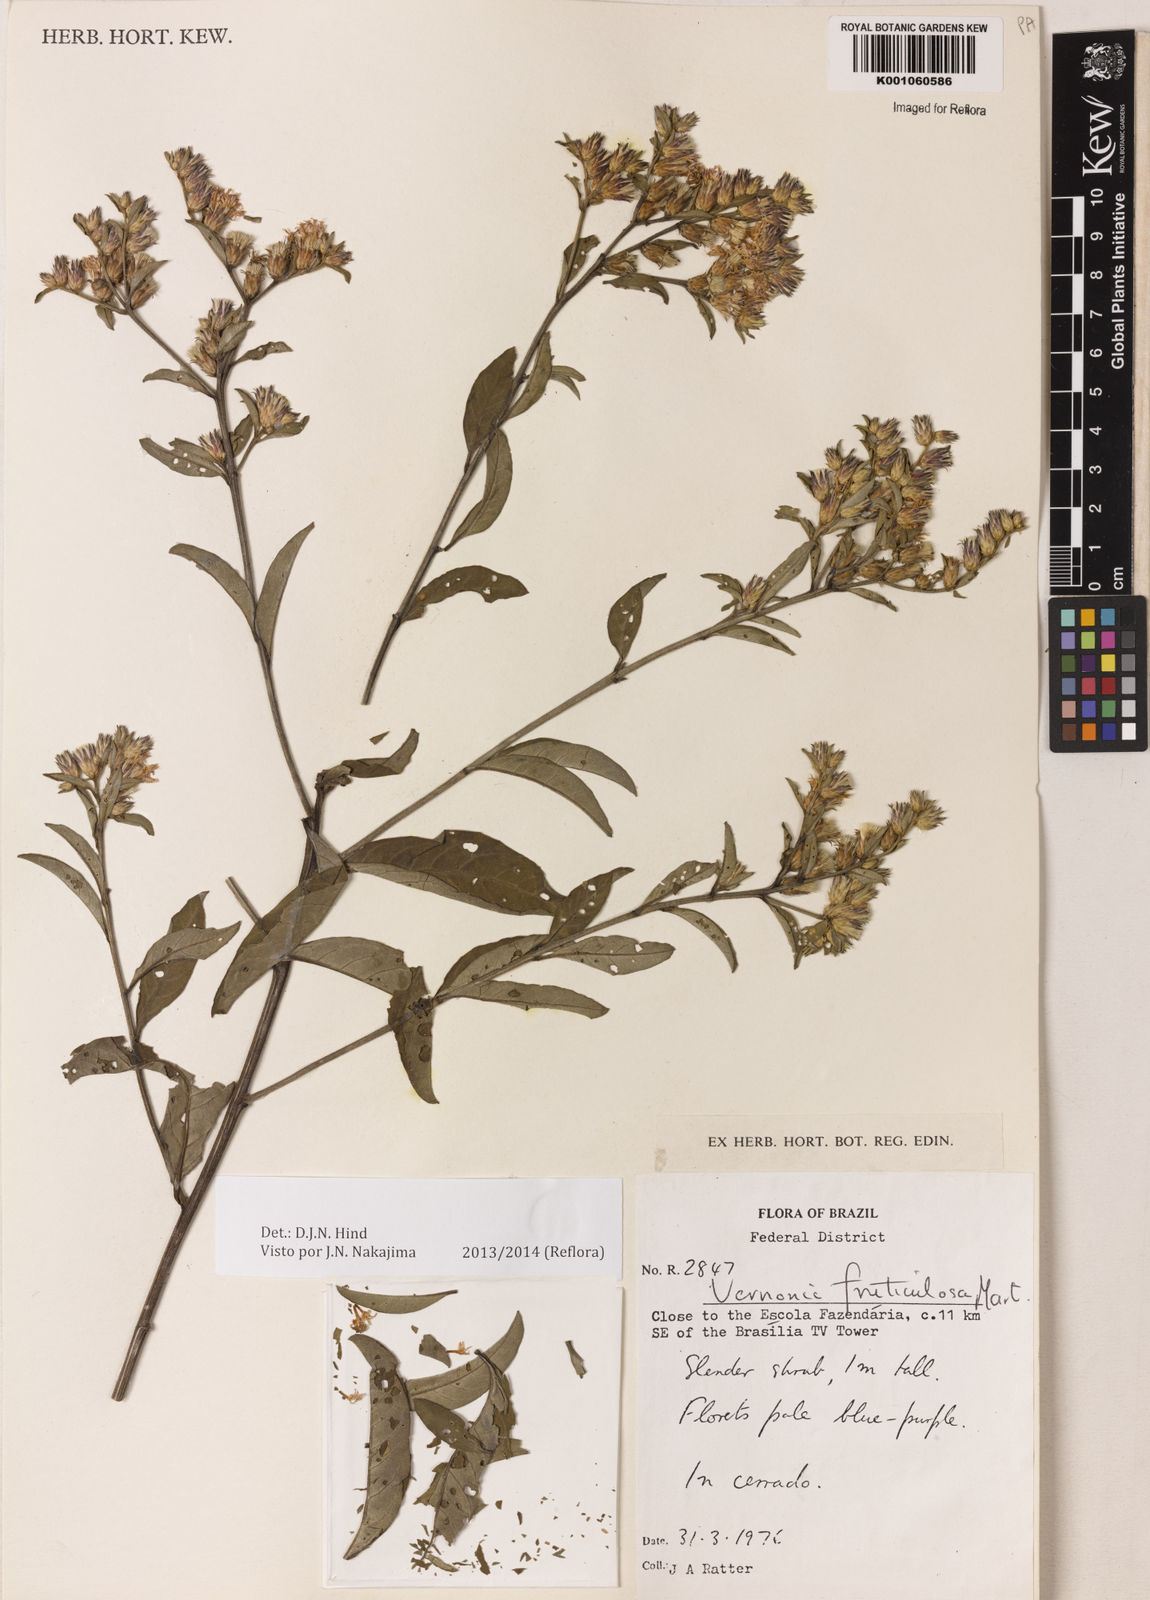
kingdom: Plantae
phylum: Tracheophyta
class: Magnoliopsida
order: Asterales
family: Asteraceae
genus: Lepidaploa
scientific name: Lepidaploa rufogrisea
